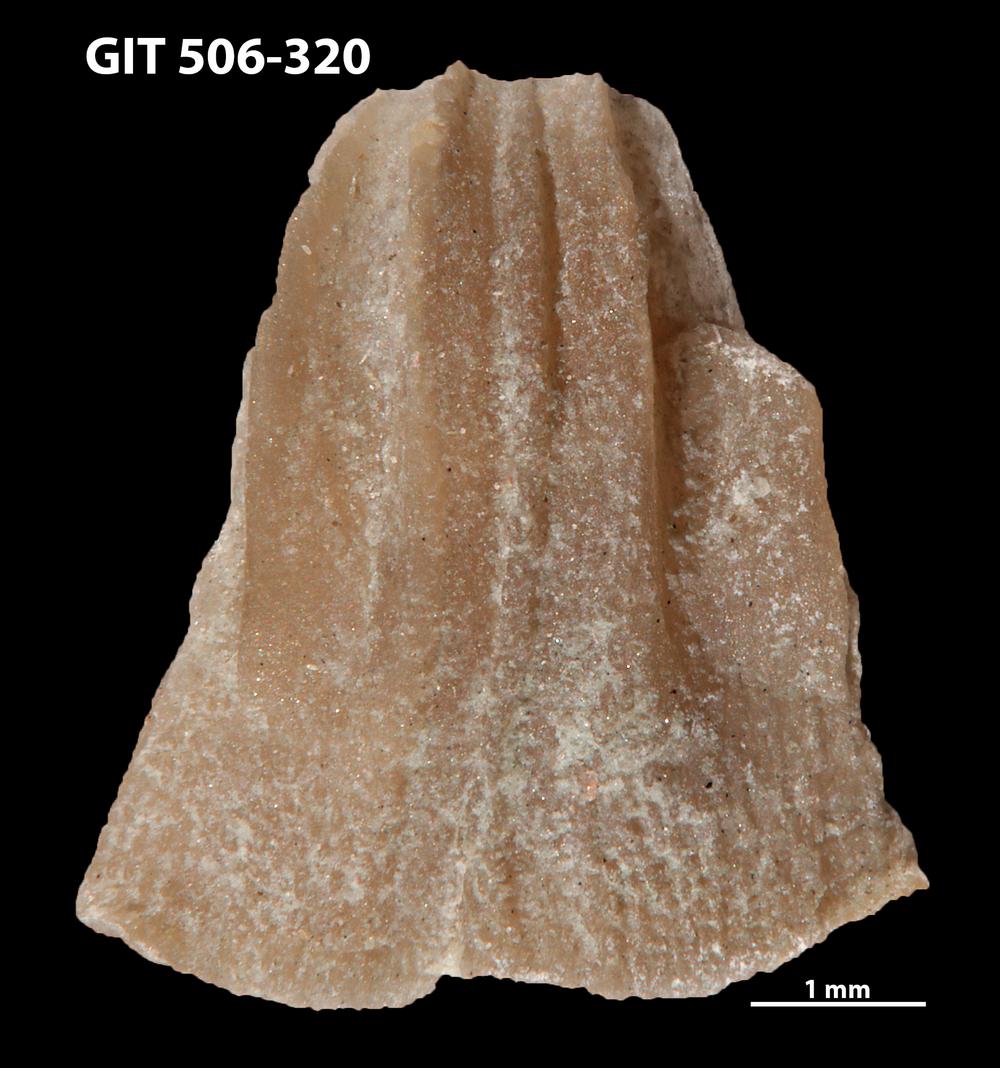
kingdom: Animalia
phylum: Brachiopoda
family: Oldhaminidae
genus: Eoplectodonta
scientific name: Eoplectodonta penkillensis
